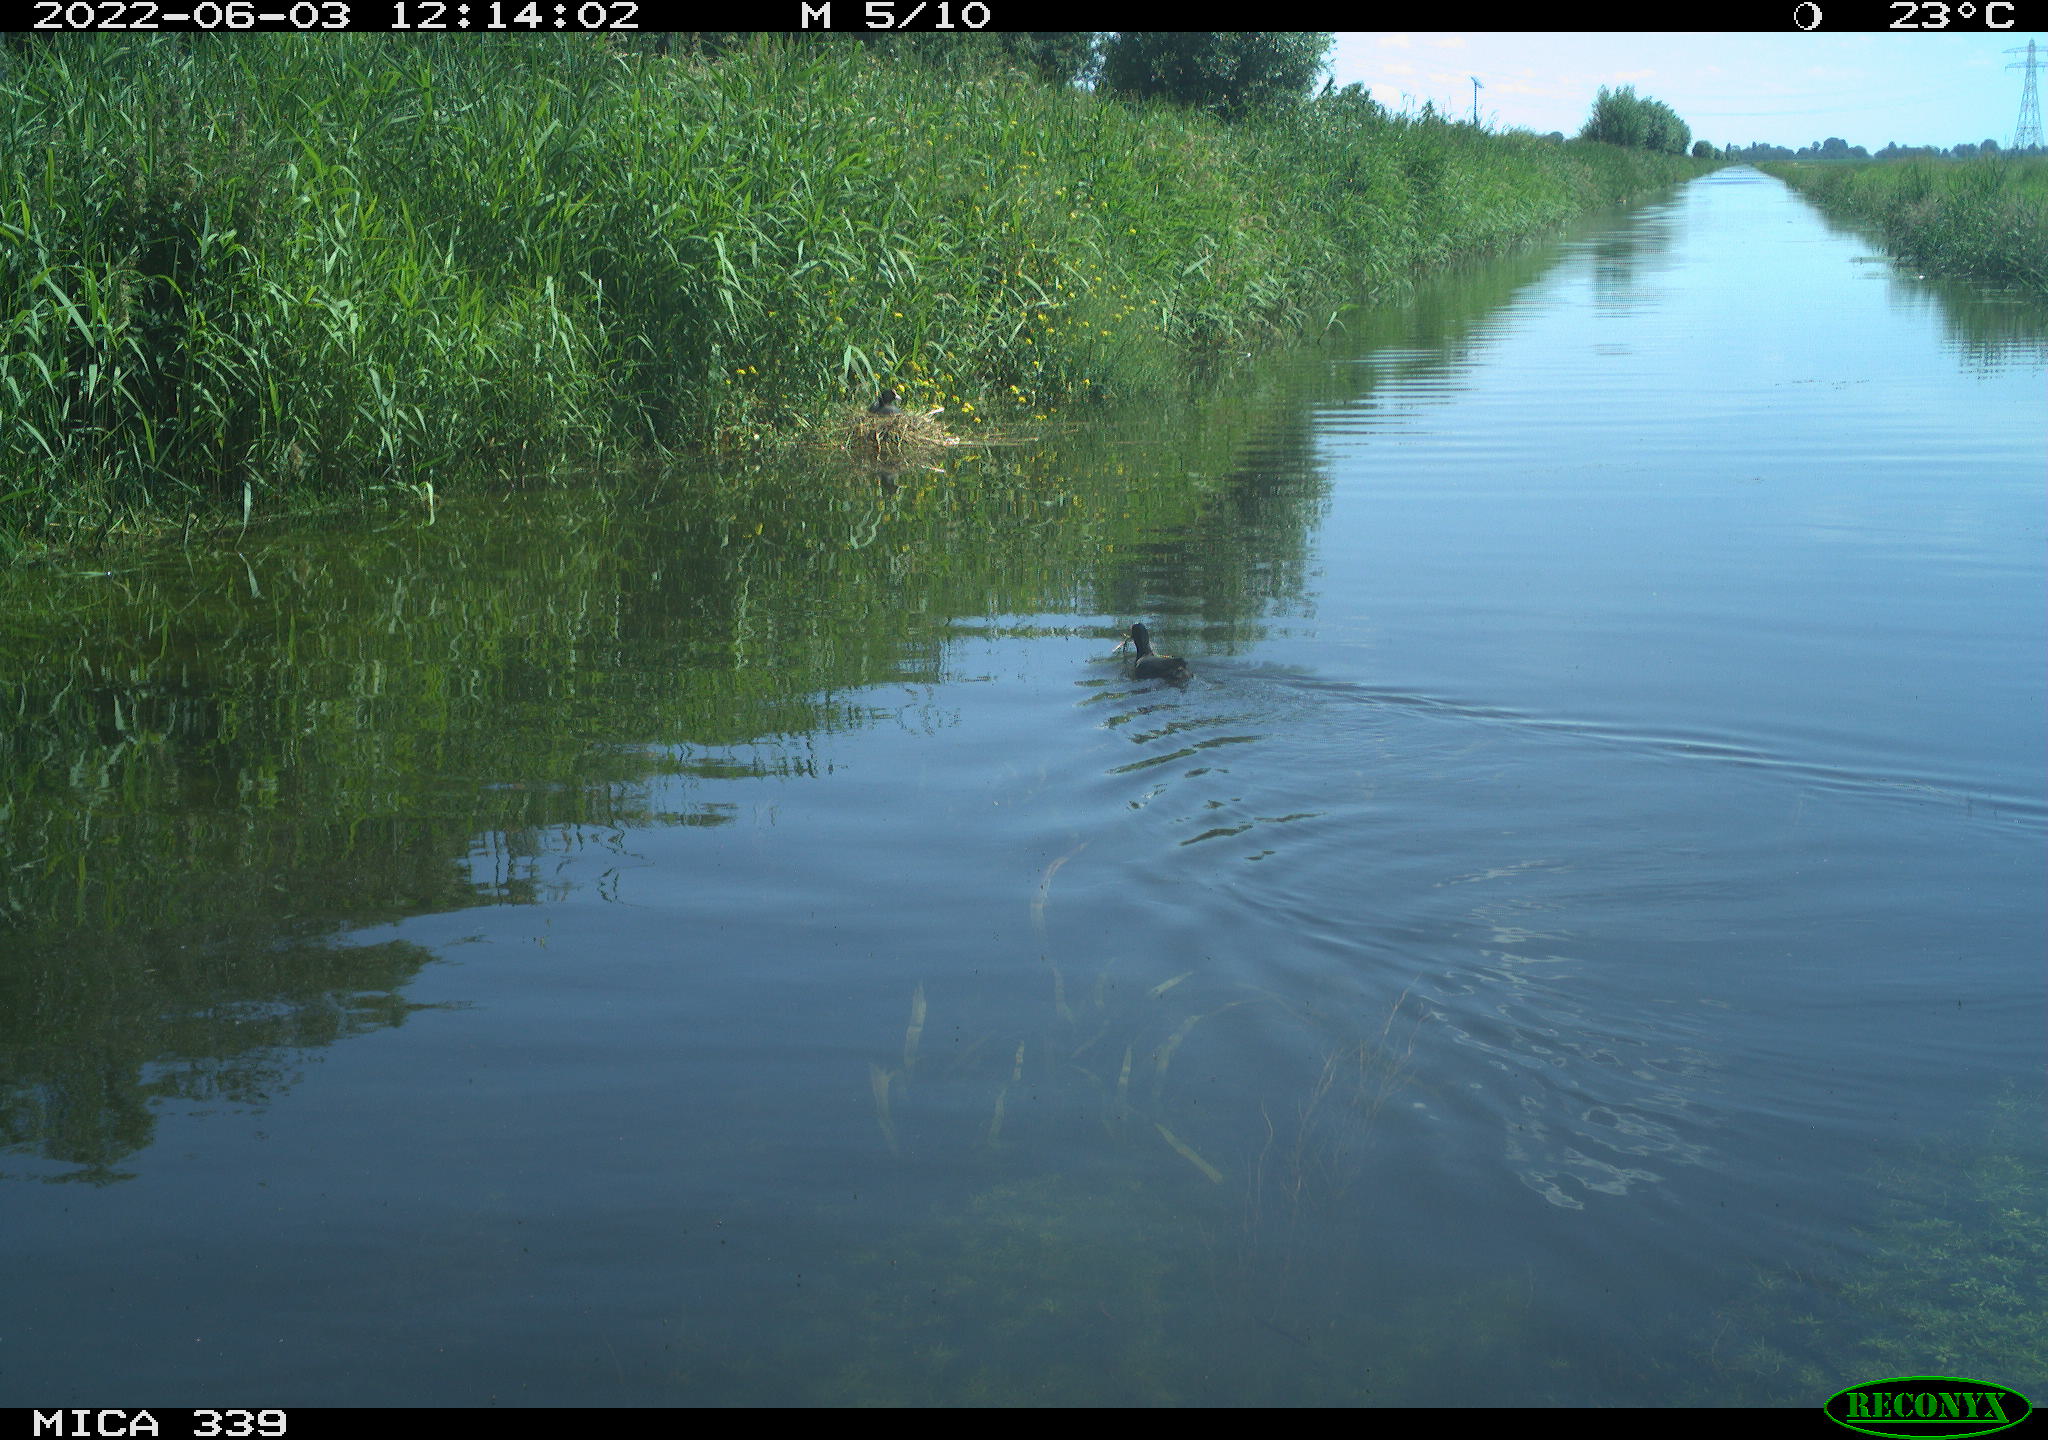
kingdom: Animalia
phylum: Chordata
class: Aves
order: Gruiformes
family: Rallidae
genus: Fulica
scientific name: Fulica atra
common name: Eurasian coot
